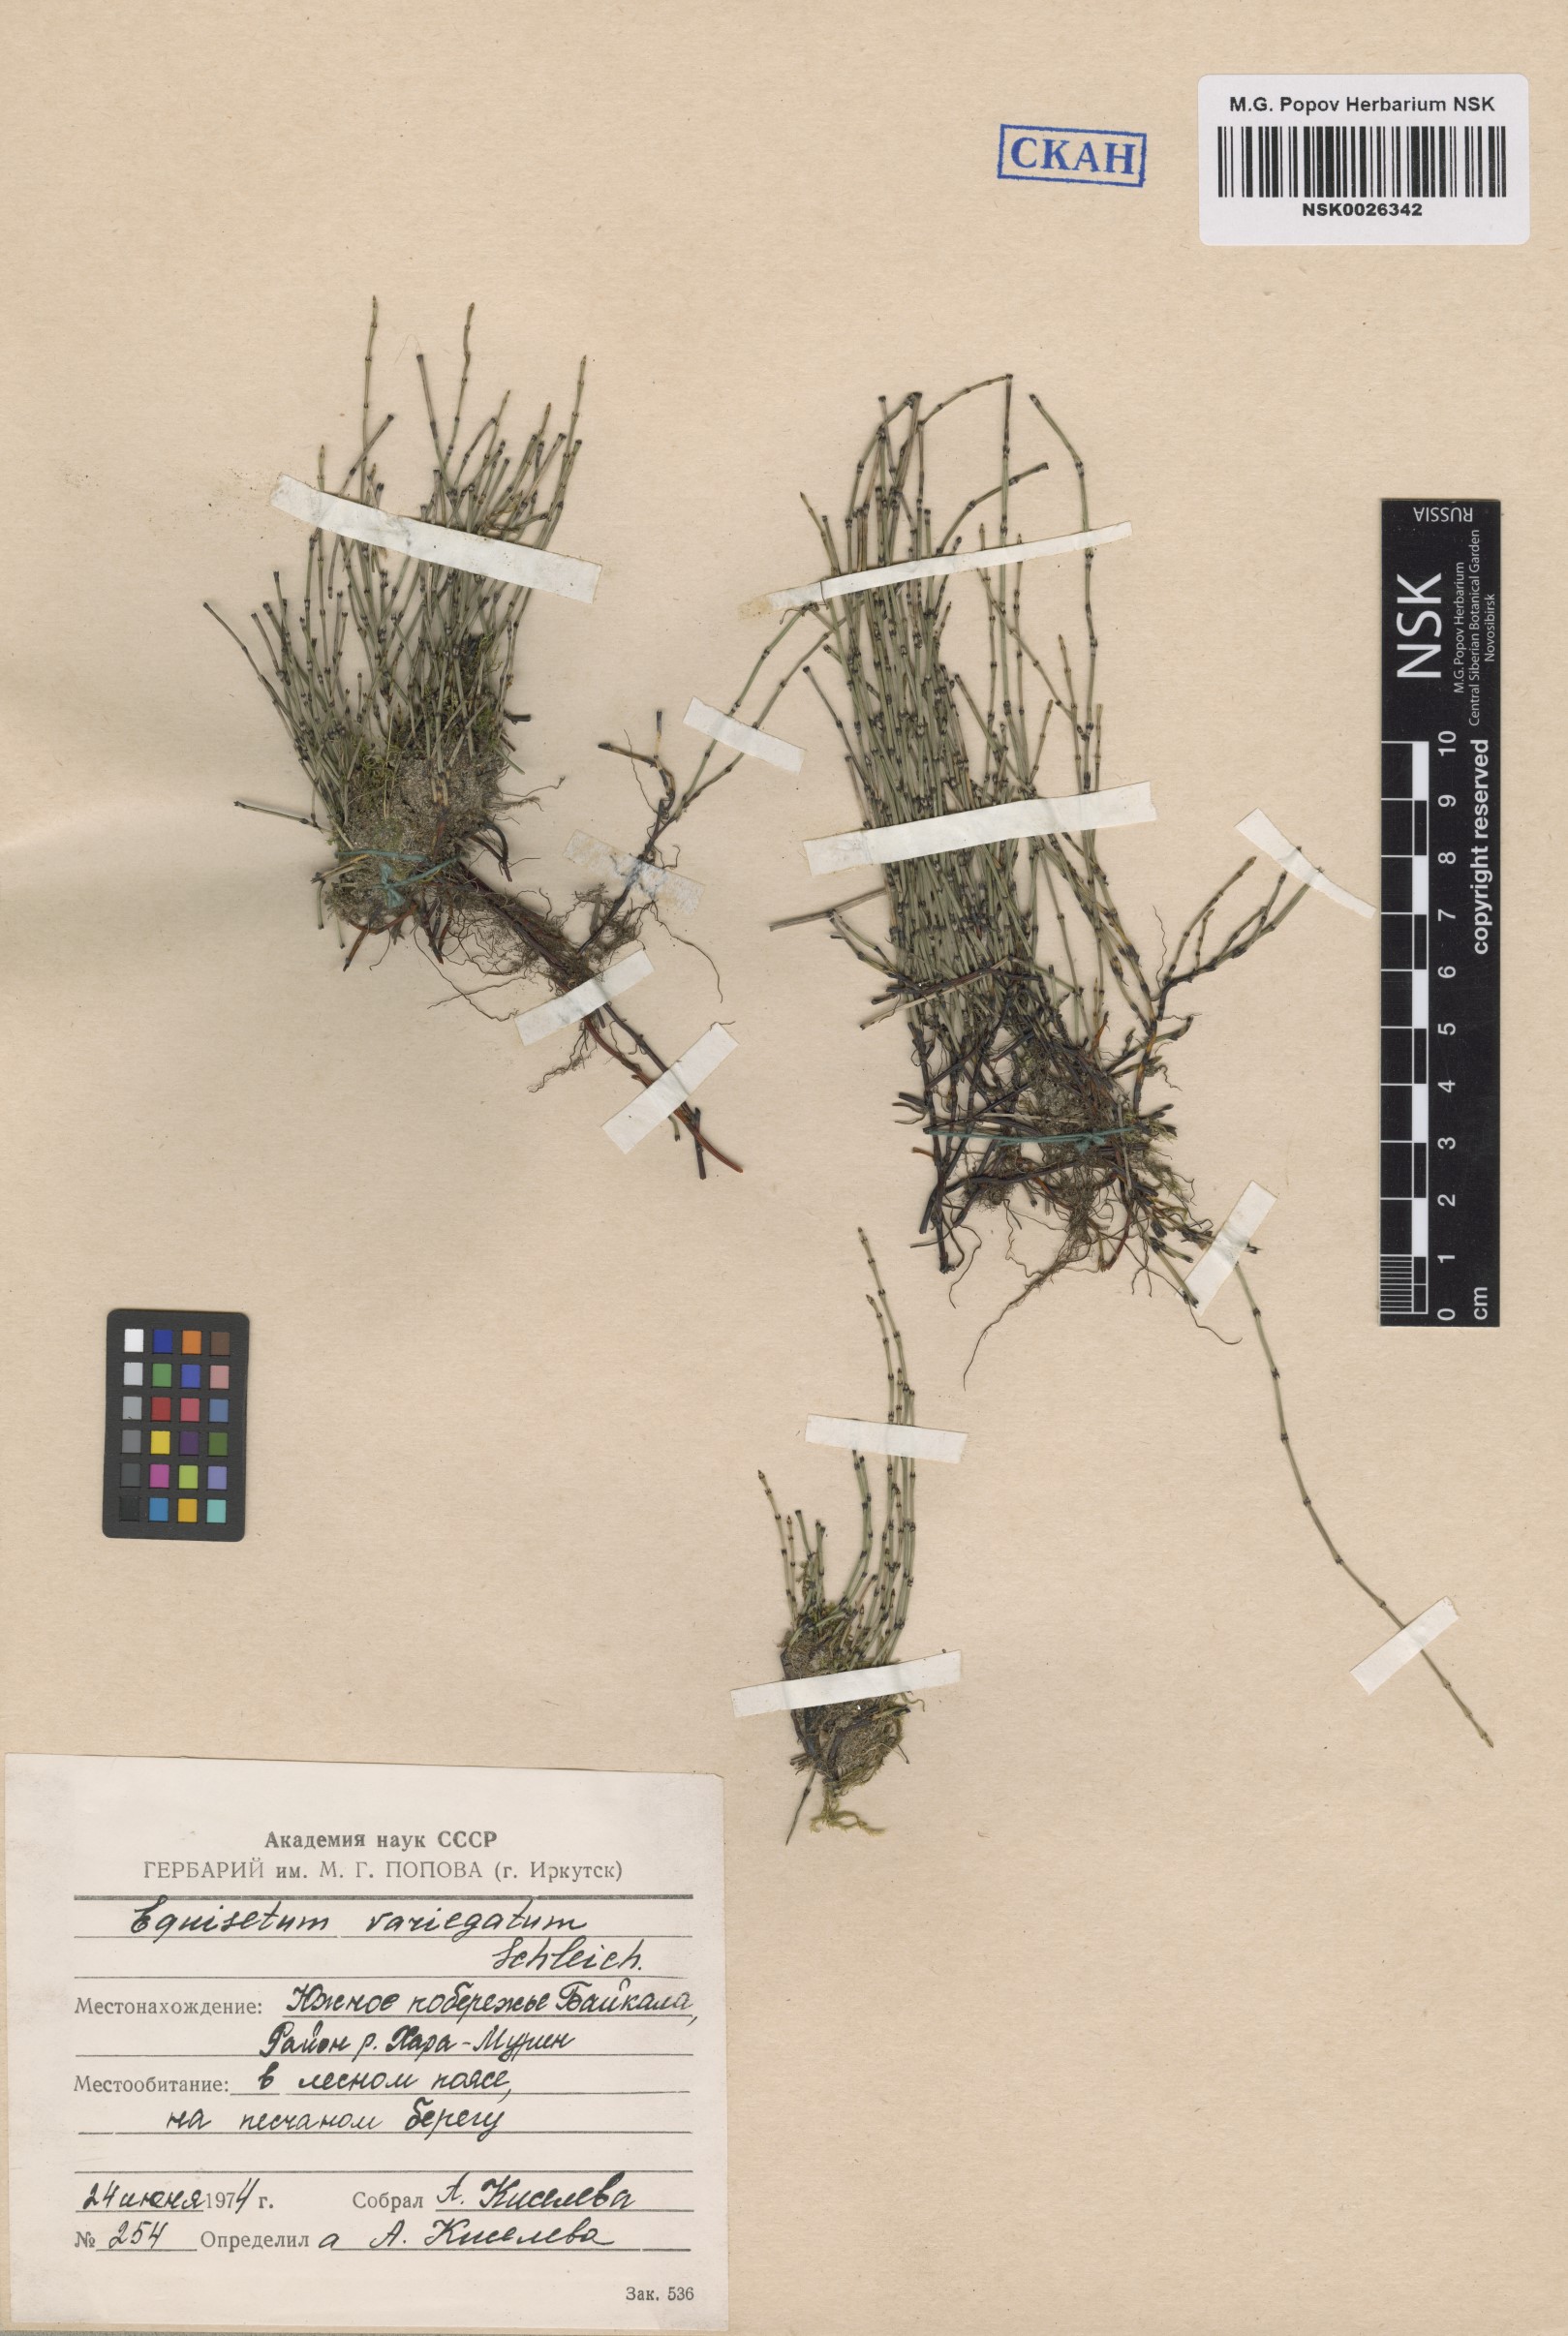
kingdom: Plantae
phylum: Tracheophyta
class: Polypodiopsida
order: Equisetales
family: Equisetaceae
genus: Equisetum
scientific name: Equisetum variegatum
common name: Variegated horsetail
